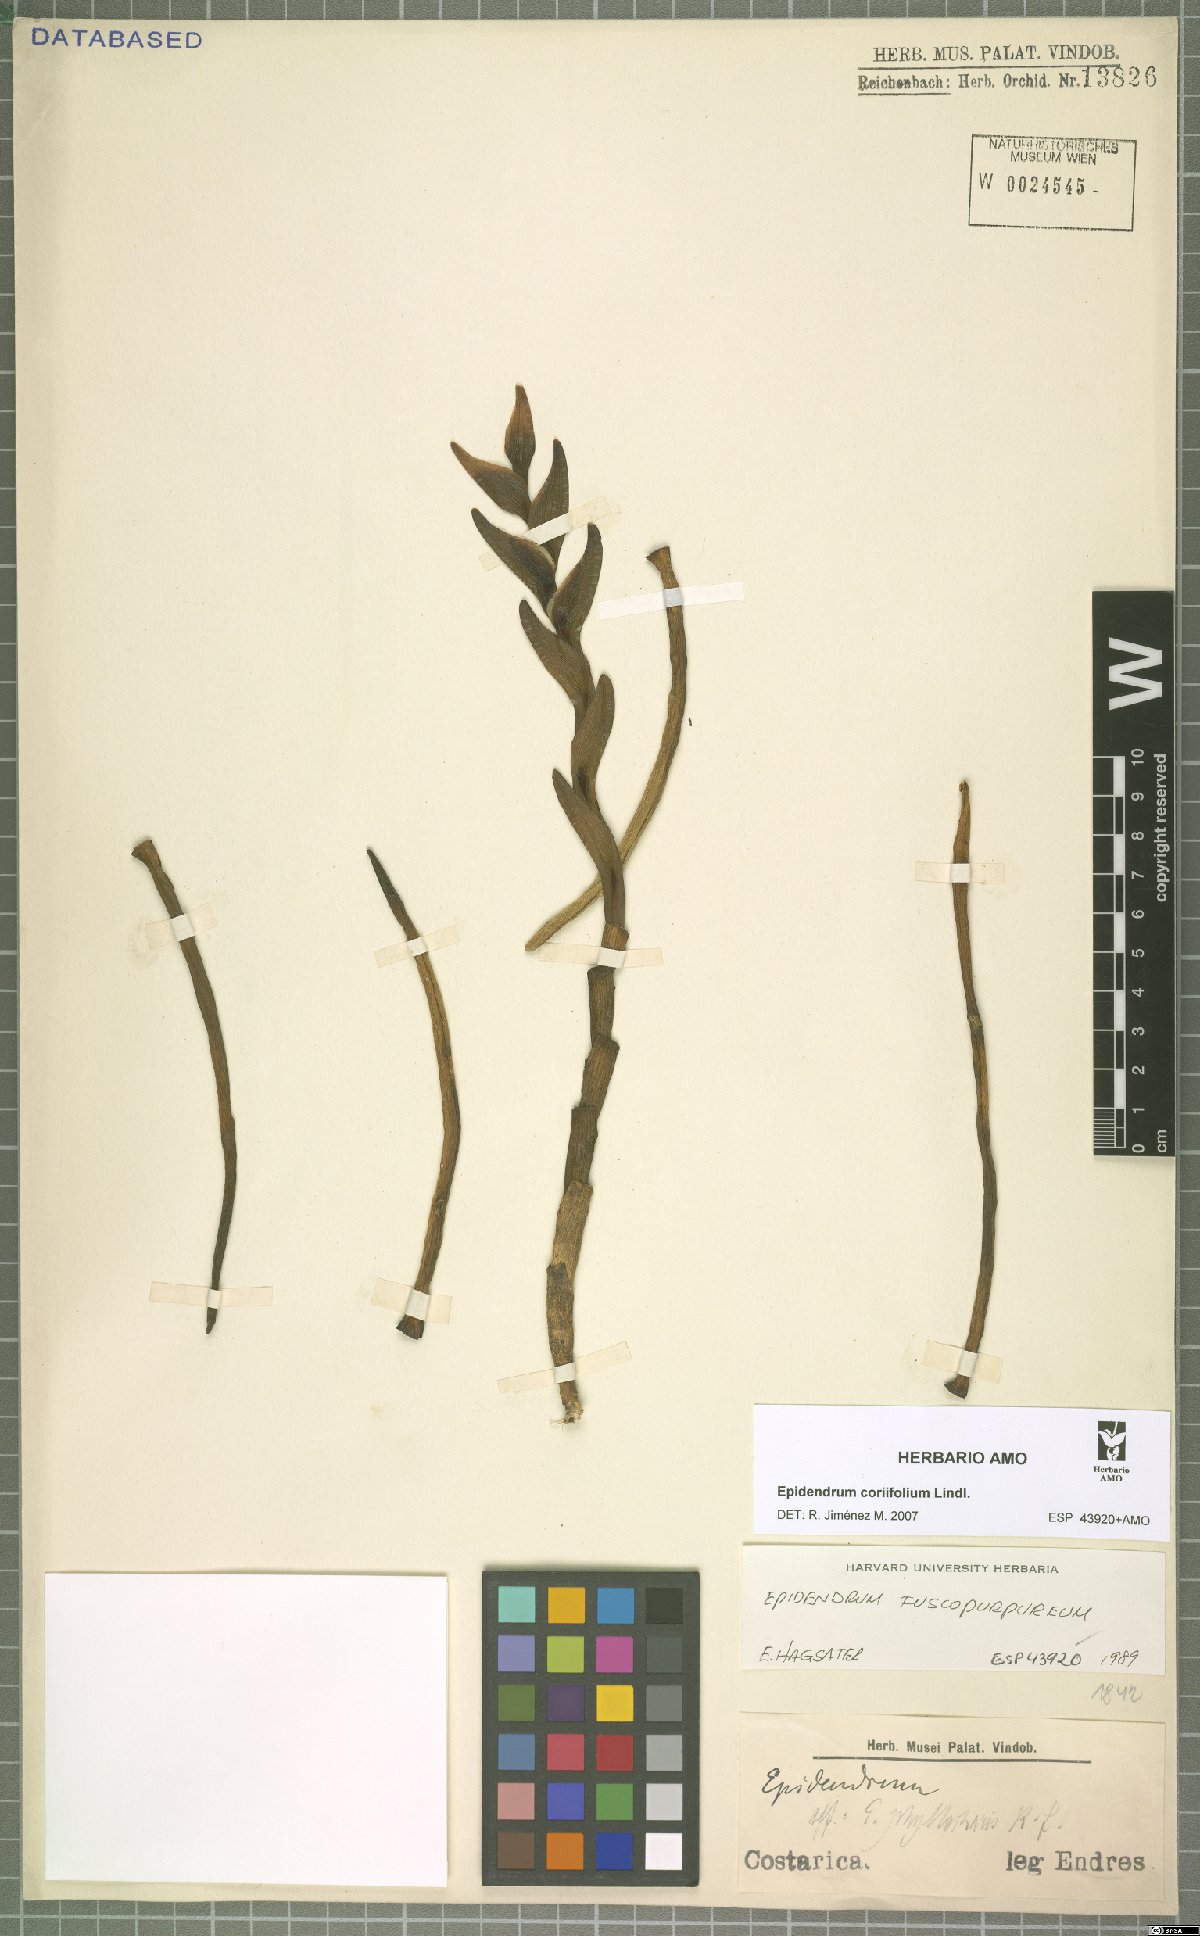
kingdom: Plantae
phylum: Tracheophyta
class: Liliopsida
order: Asparagales
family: Orchidaceae
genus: Epidendrum
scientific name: Epidendrum coriifolium
